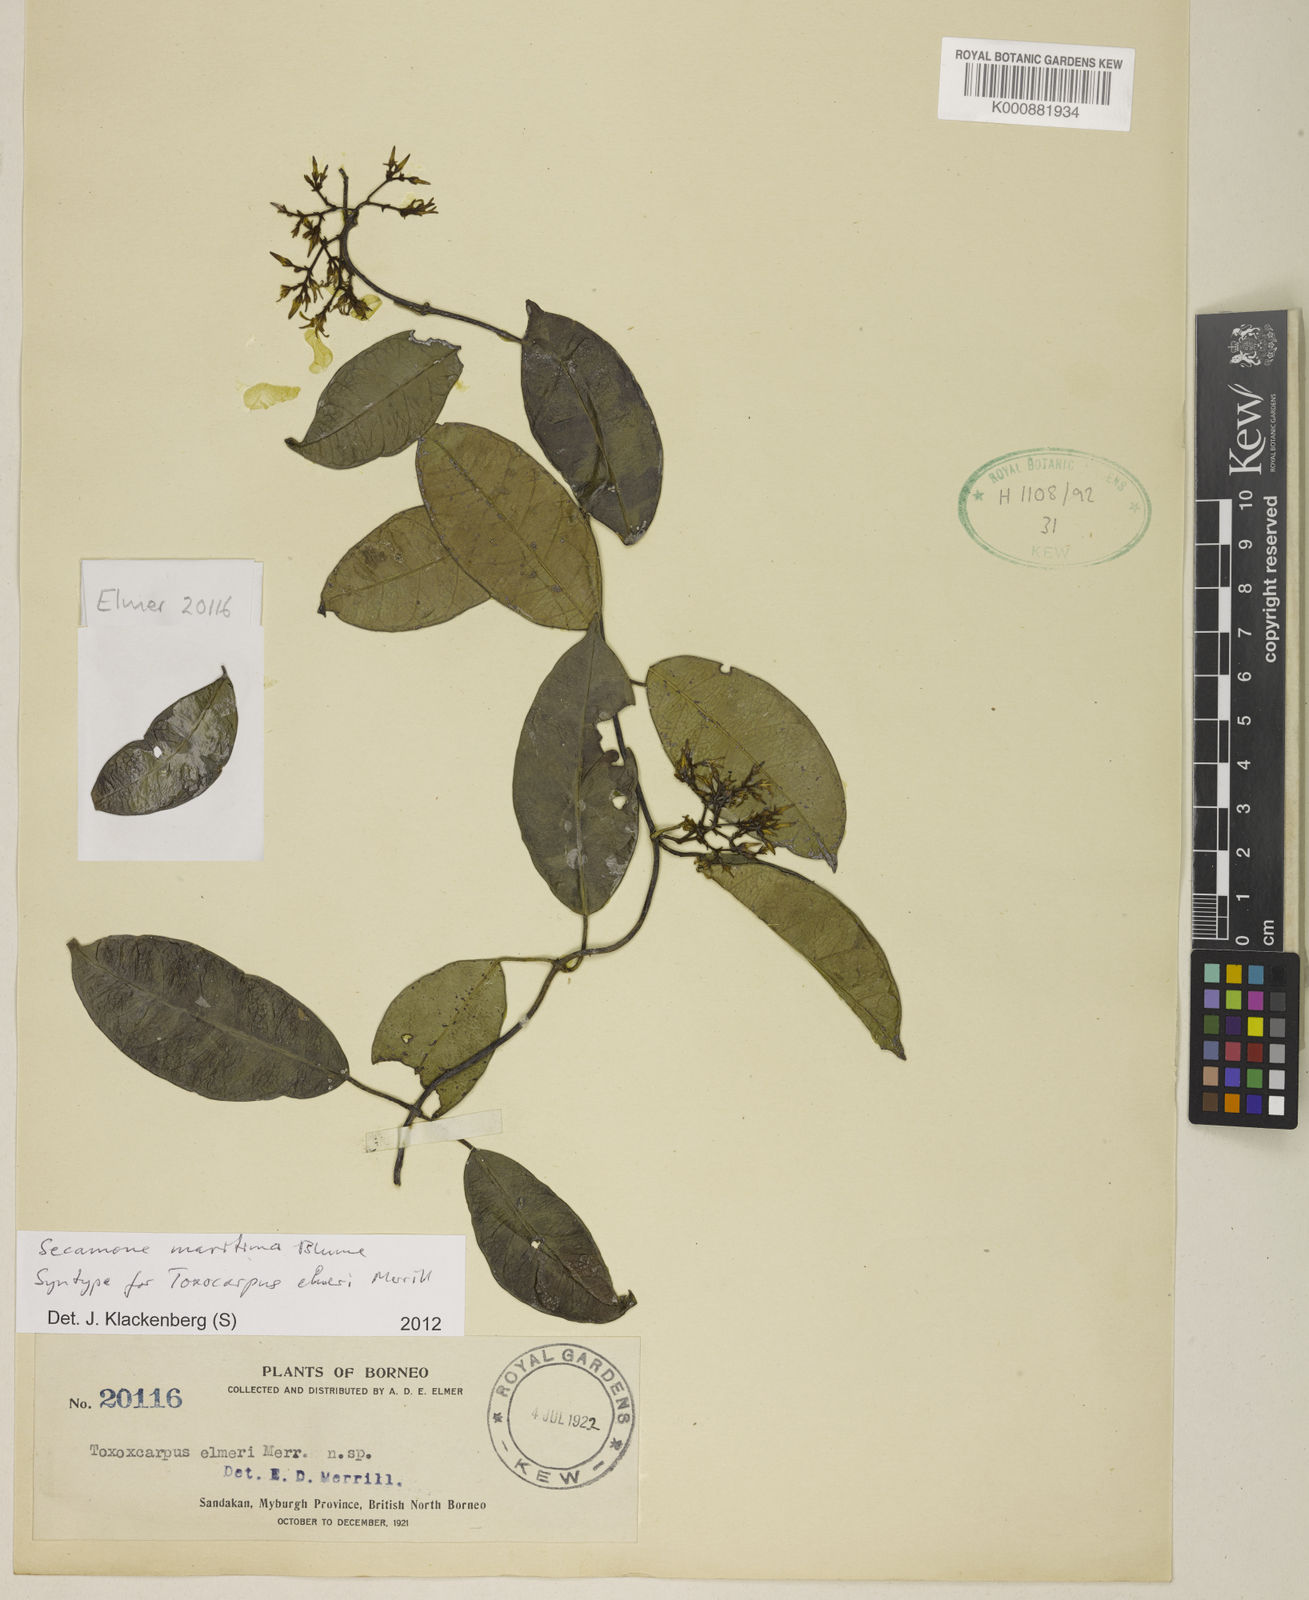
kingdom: Plantae
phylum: Tracheophyta
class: Magnoliopsida
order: Gentianales
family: Apocynaceae
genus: Finlaysonia
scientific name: Finlaysonia obovata
